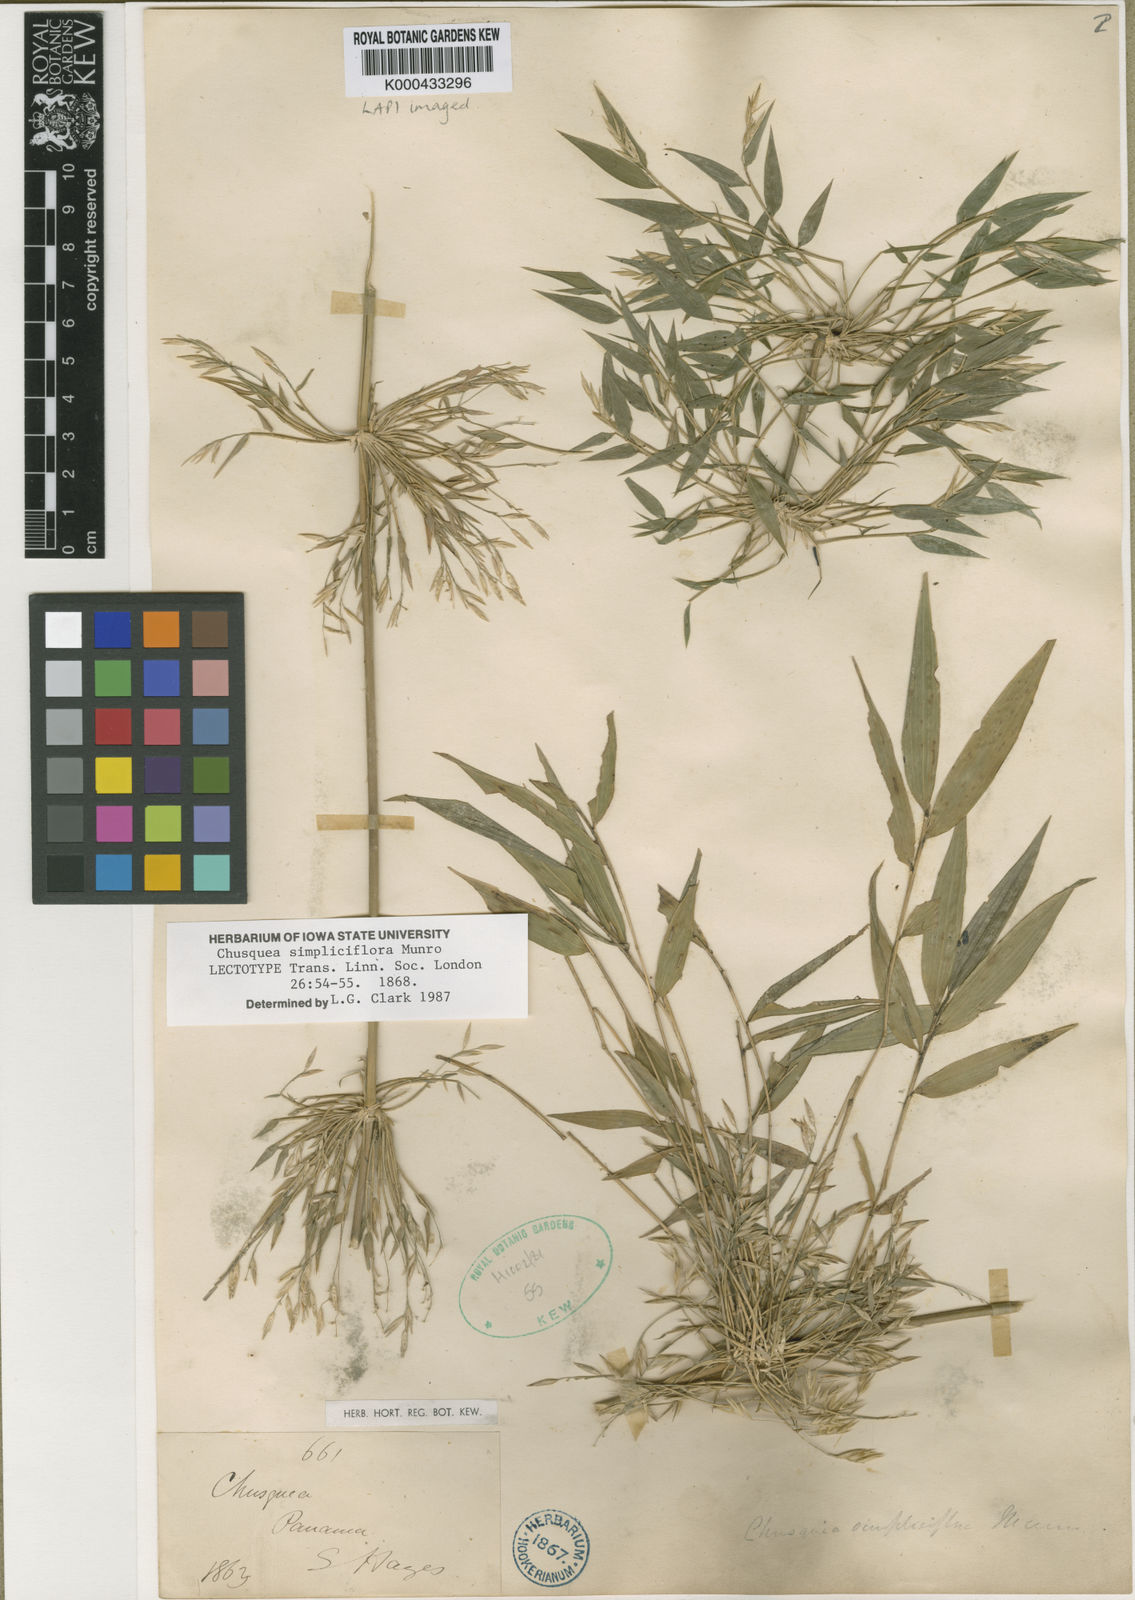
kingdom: Plantae
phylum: Tracheophyta
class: Liliopsida
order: Poales
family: Poaceae
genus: Chusquea
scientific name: Chusquea simpliciflora
